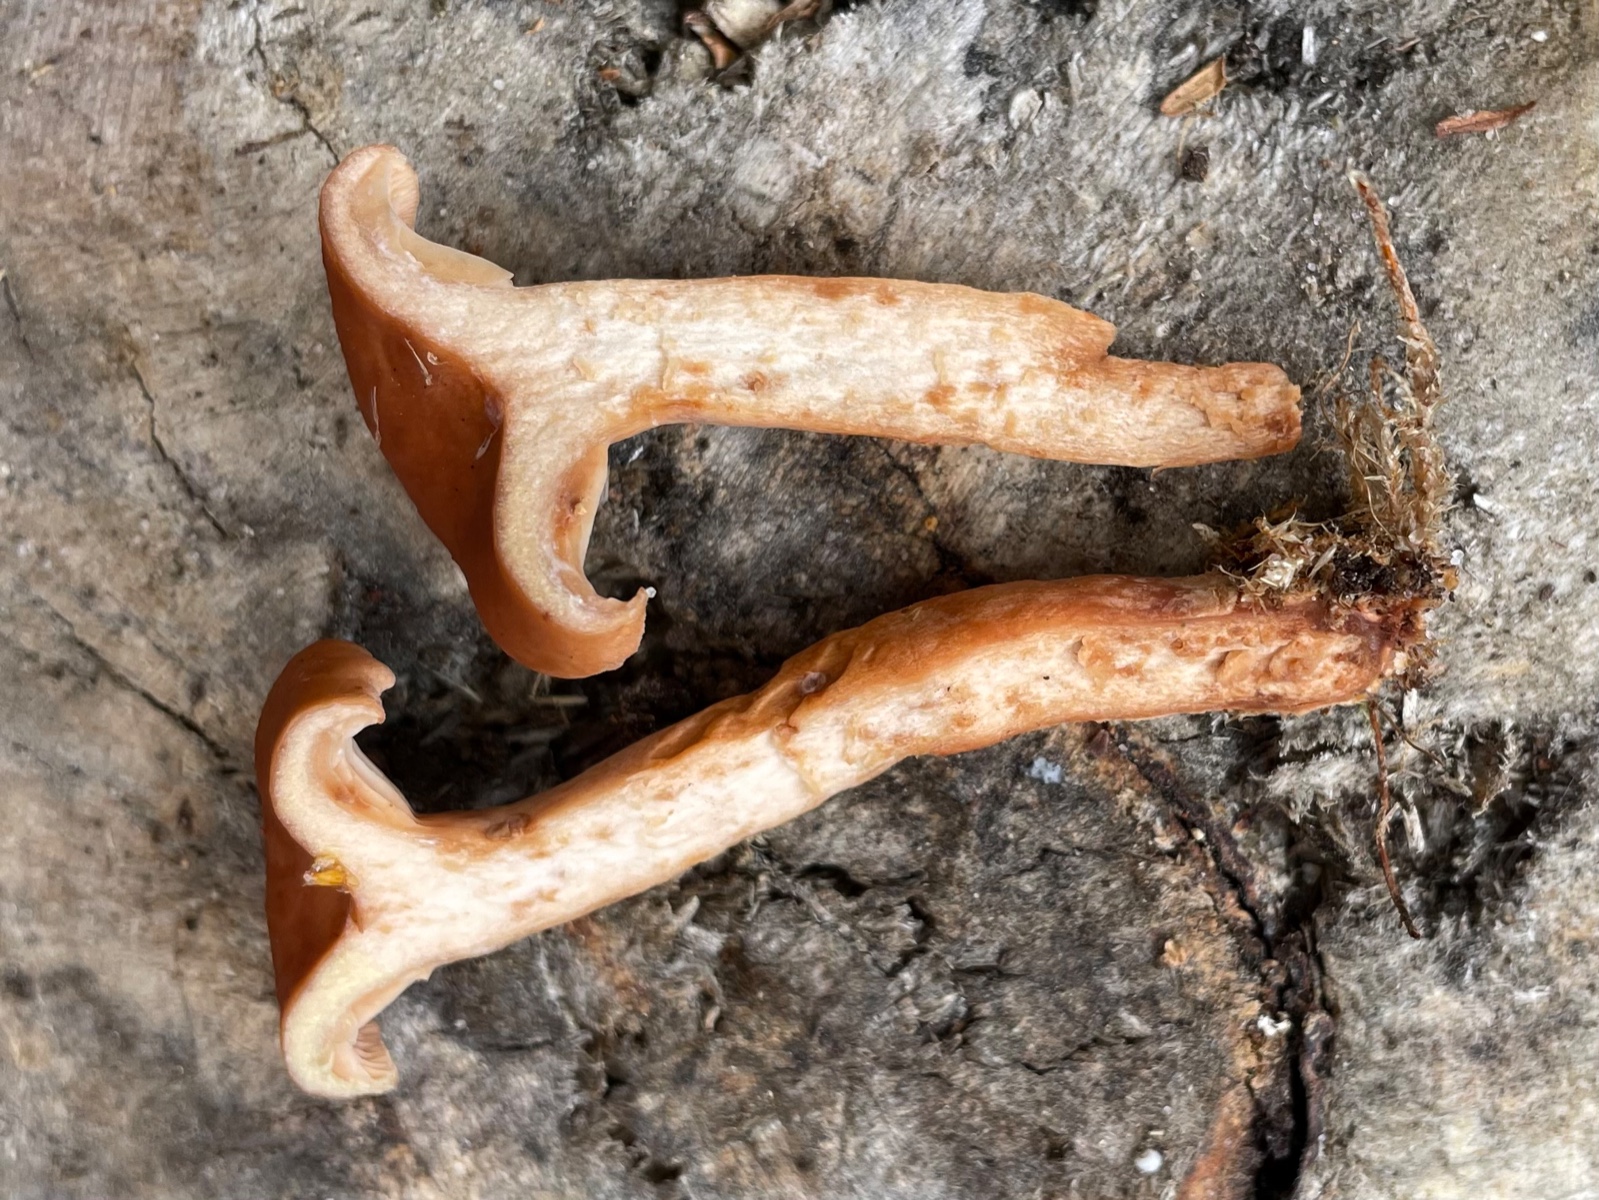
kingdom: Fungi
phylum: Basidiomycota
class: Agaricomycetes
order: Russulales
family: Russulaceae
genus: Lactarius
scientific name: Lactarius rufus
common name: rødbrun mælkehat
